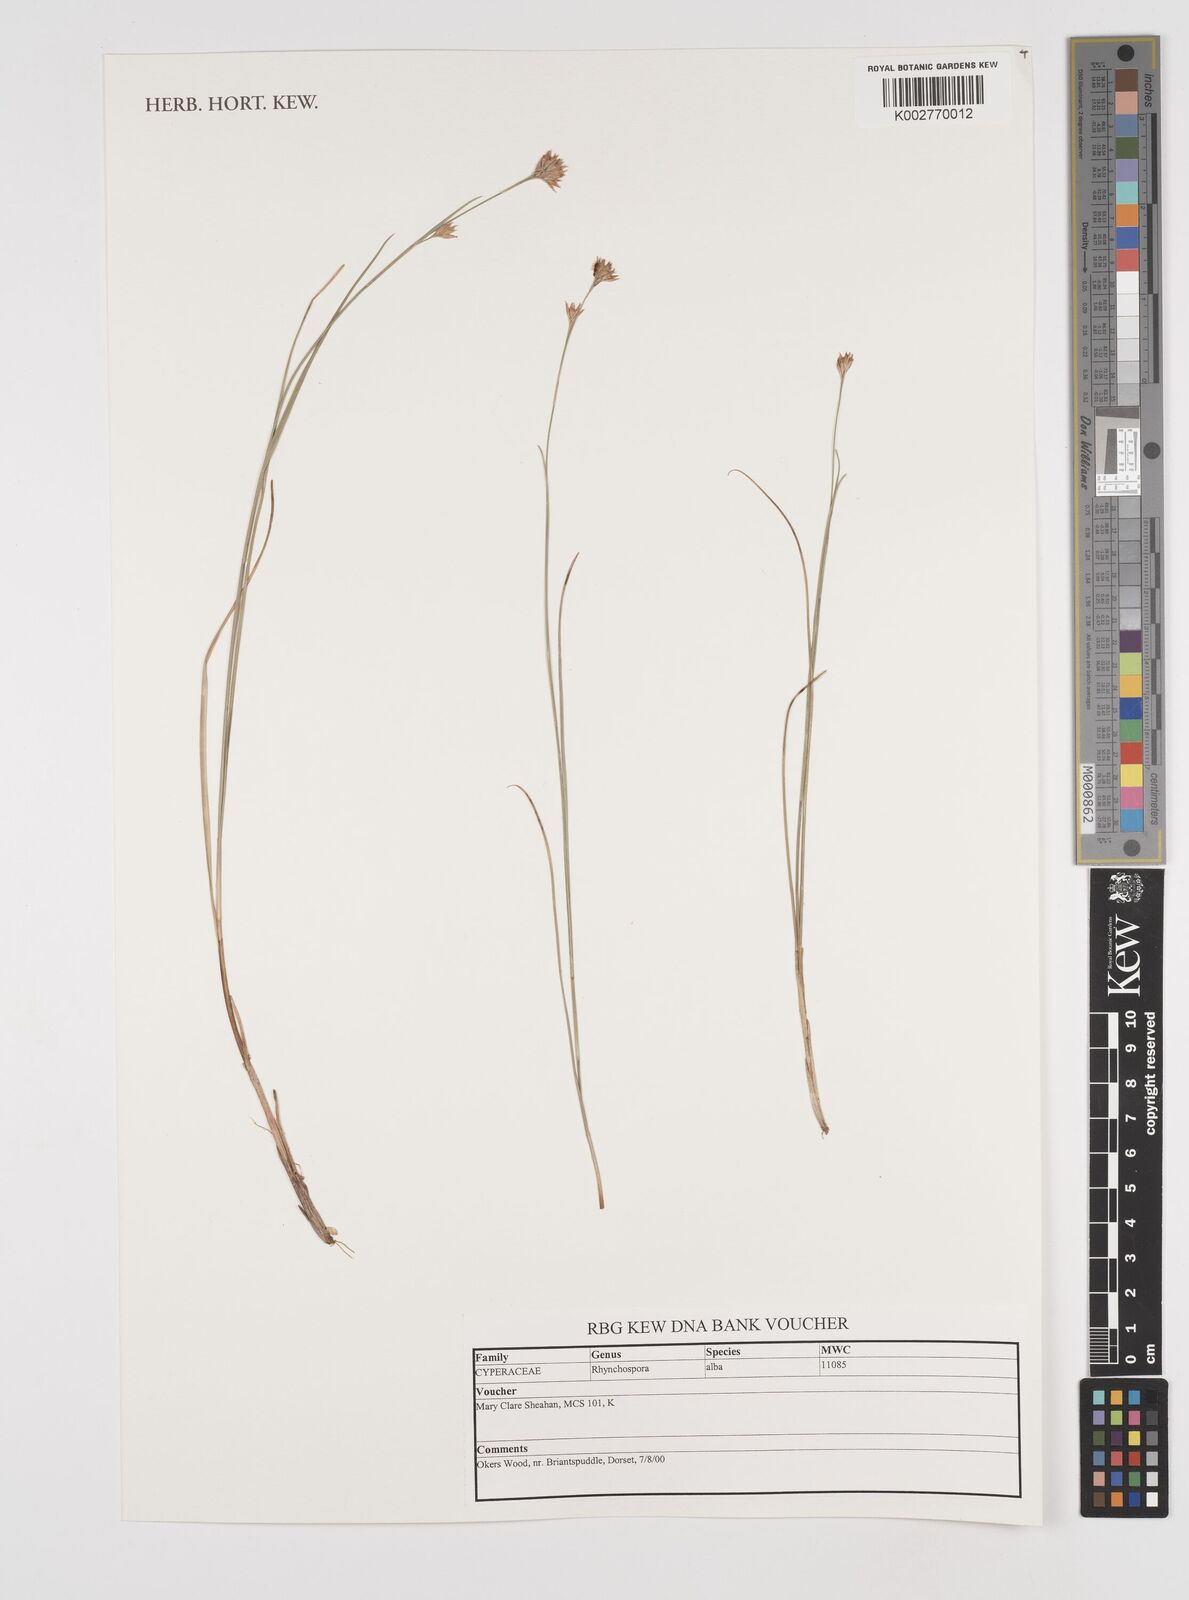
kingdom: Plantae
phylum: Tracheophyta
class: Liliopsida
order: Poales
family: Cyperaceae
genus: Rhynchospora
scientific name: Rhynchospora alba
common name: White beak-sedge
